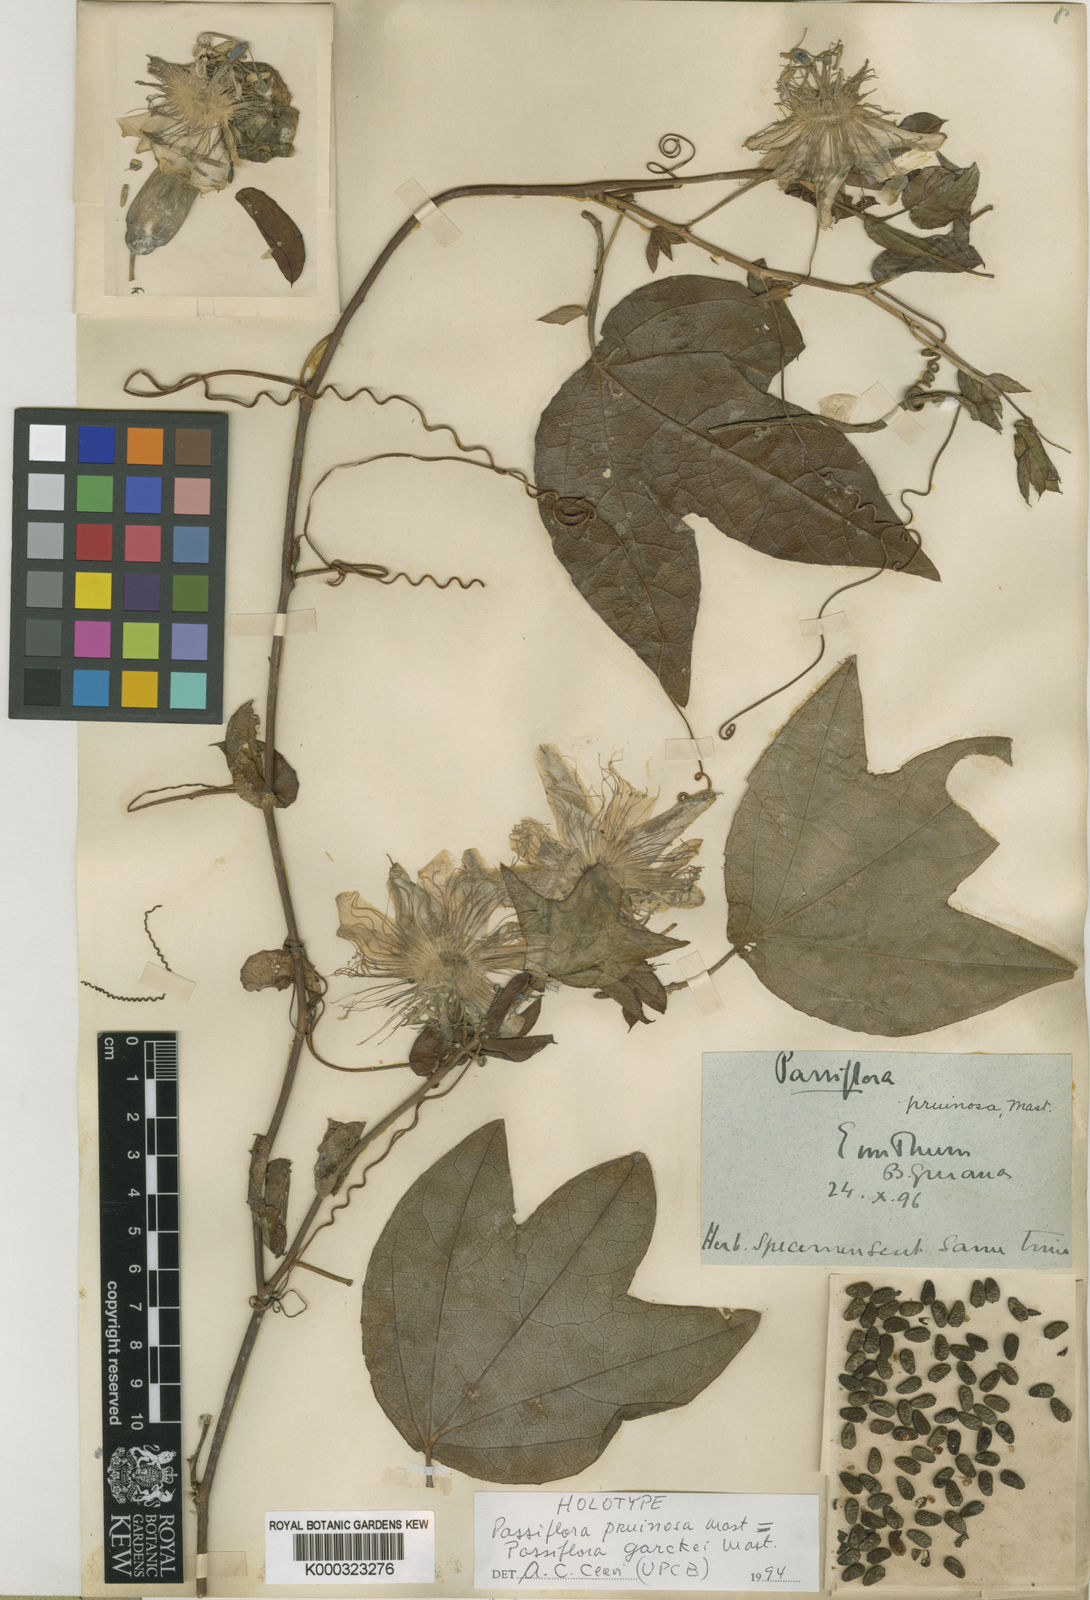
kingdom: Plantae
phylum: Tracheophyta
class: Magnoliopsida
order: Malpighiales
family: Passifloraceae
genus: Passiflora
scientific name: Passiflora garckei
